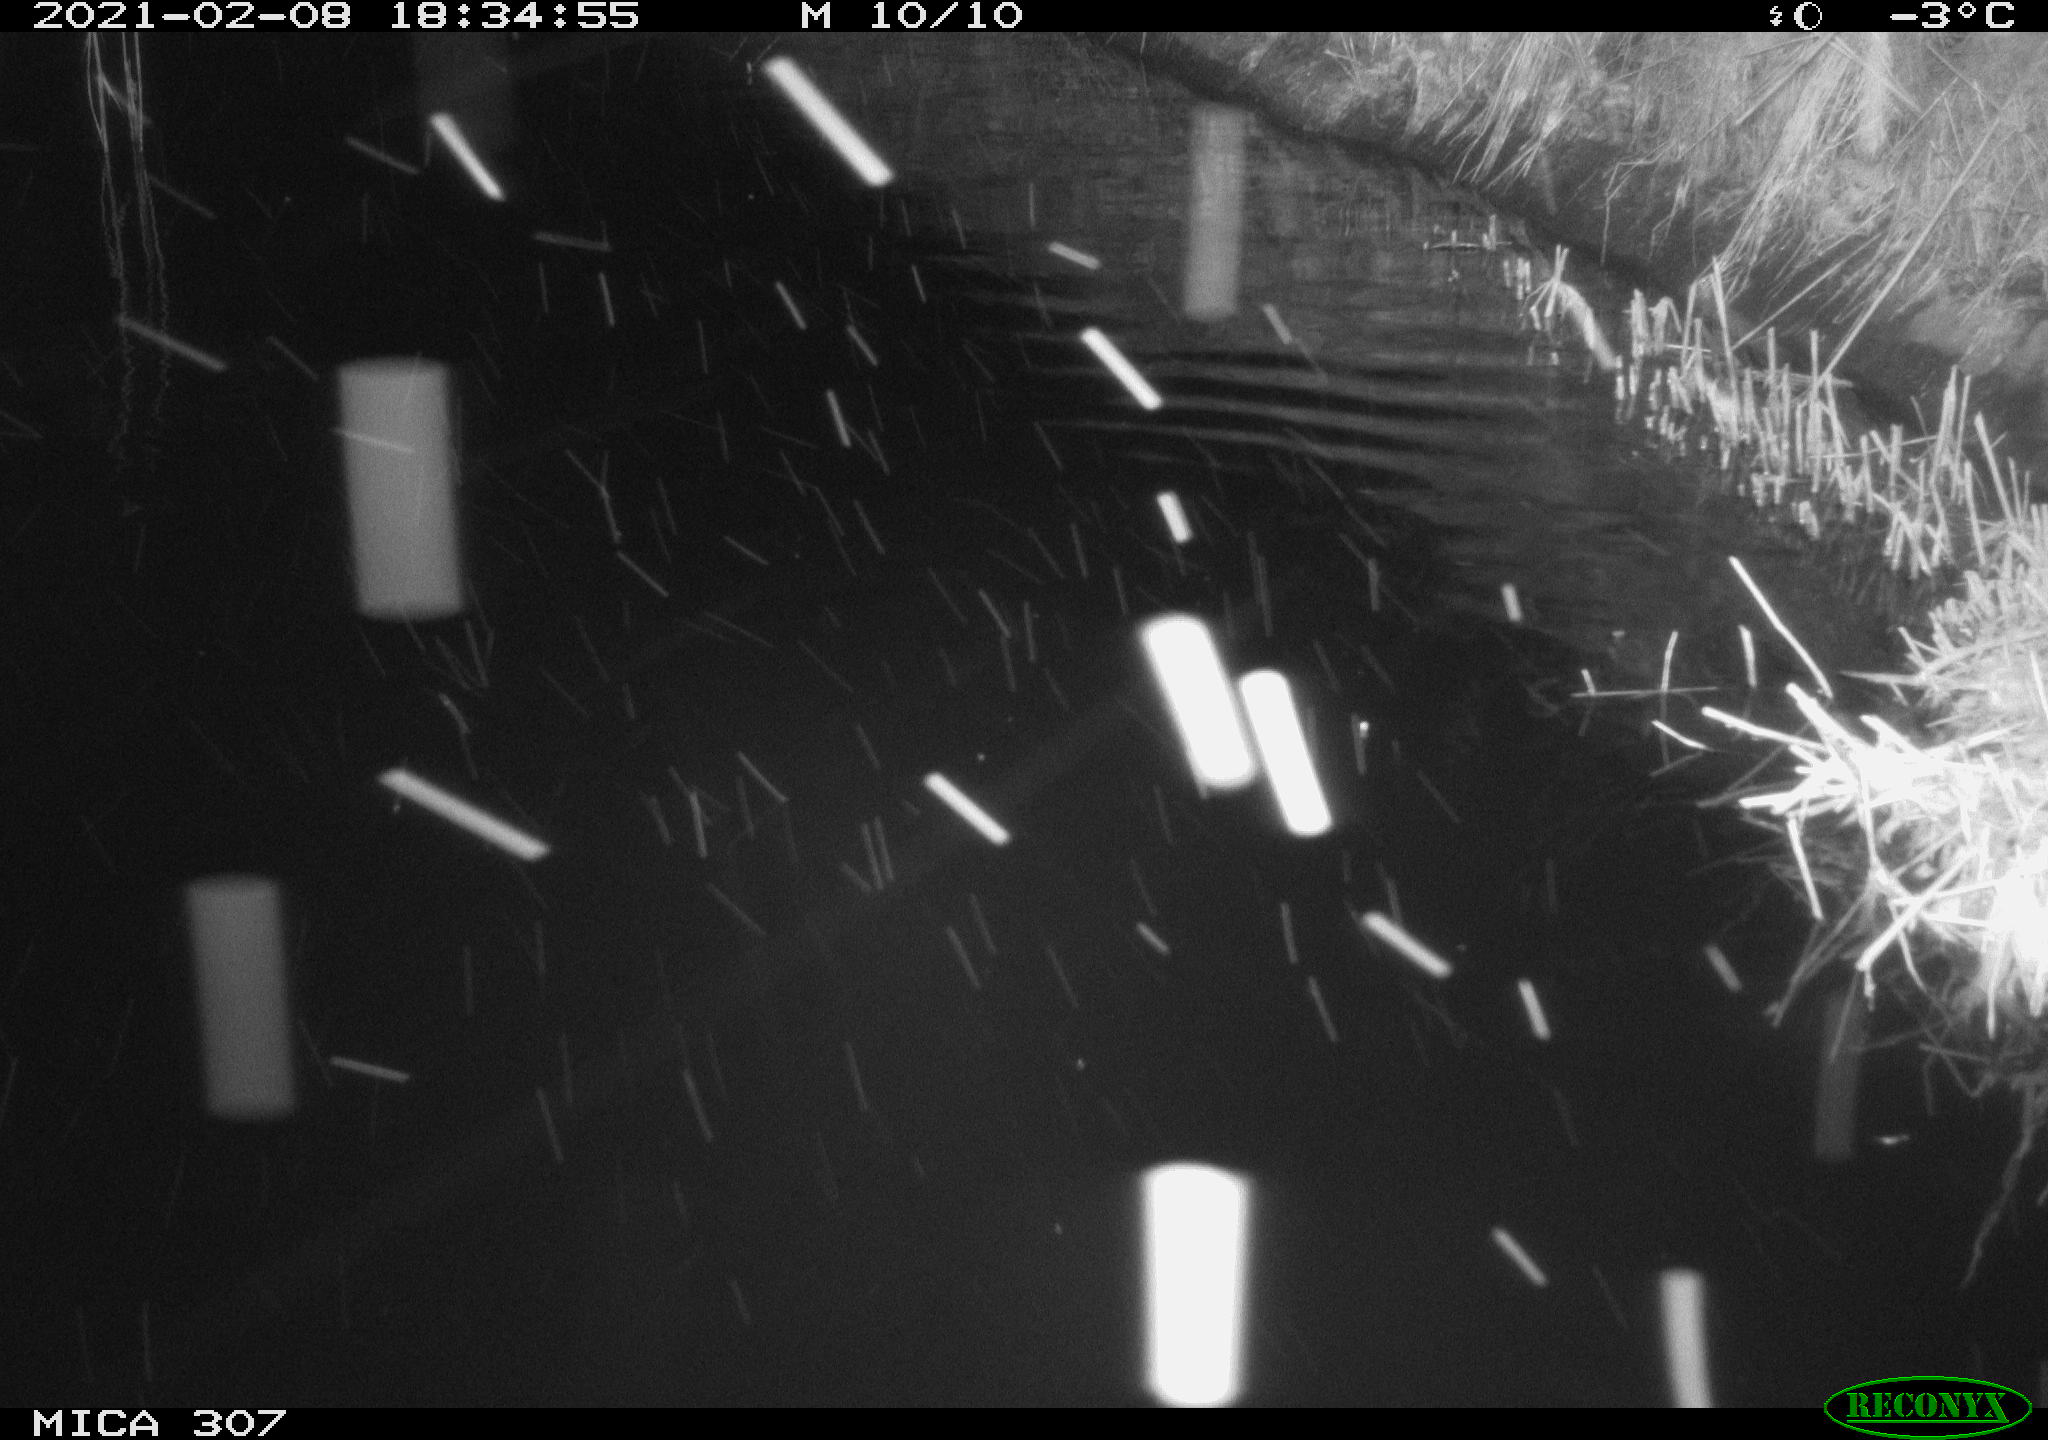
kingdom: Animalia
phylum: Chordata
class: Mammalia
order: Rodentia
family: Muridae
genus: Rattus
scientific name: Rattus norvegicus
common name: Brown rat
